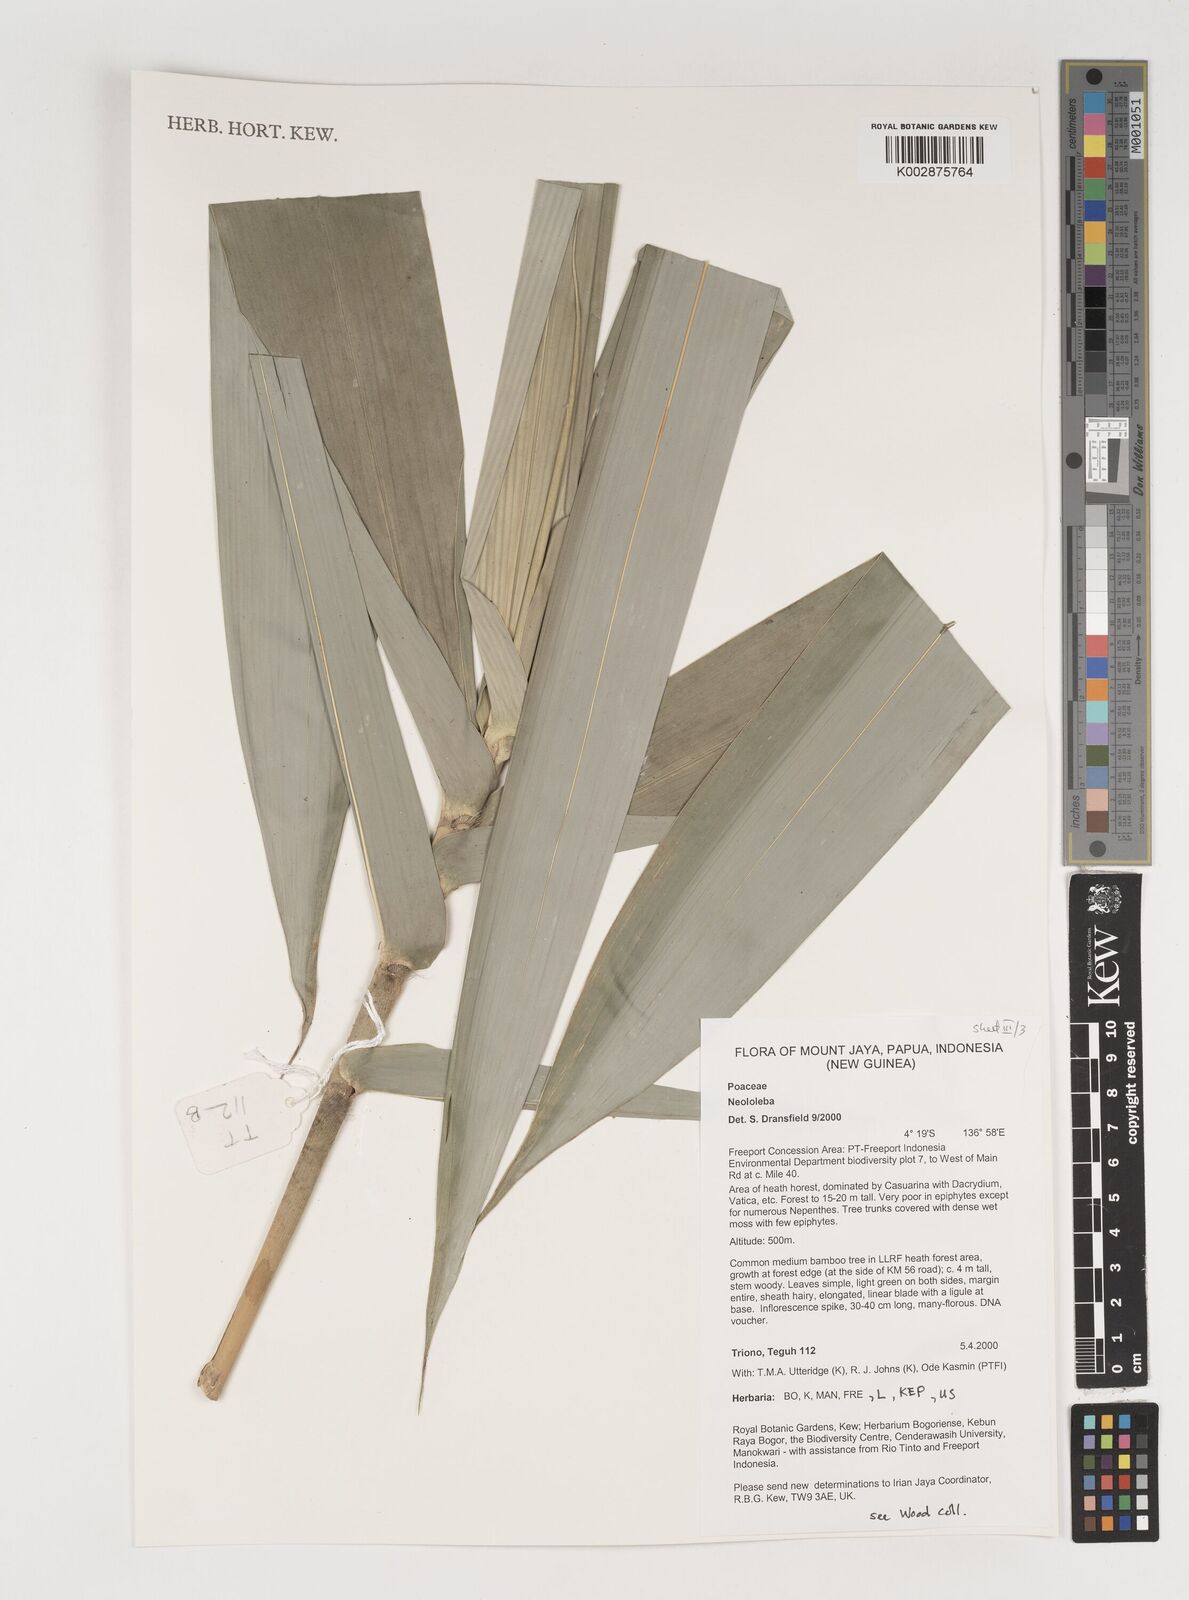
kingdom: Plantae
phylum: Tracheophyta
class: Liliopsida
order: Poales
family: Poaceae
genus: Neololeba
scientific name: Neololeba
